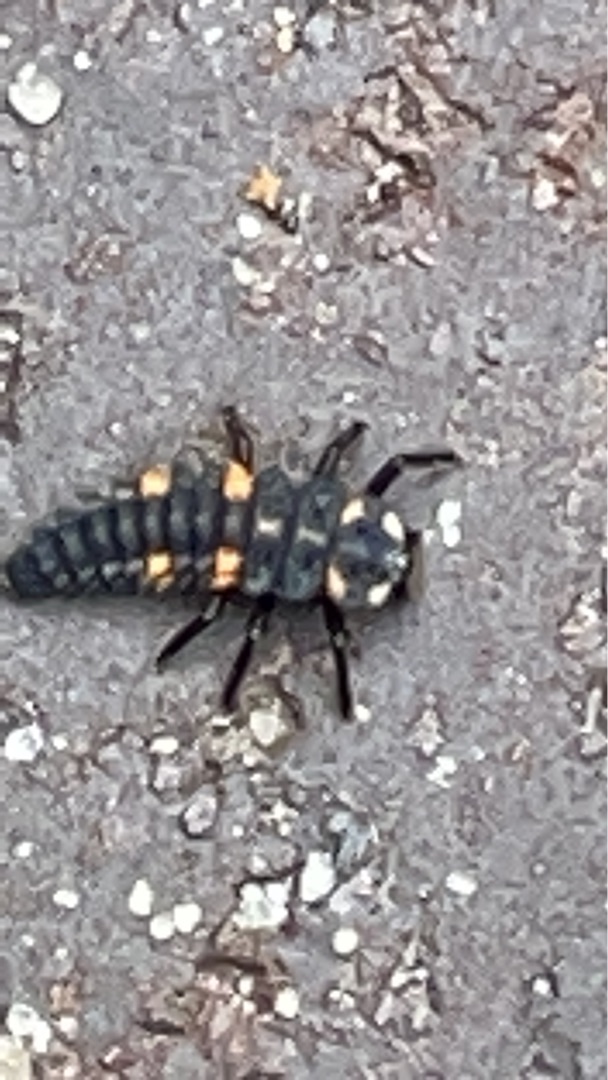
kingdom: Animalia
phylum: Arthropoda
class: Insecta
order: Coleoptera
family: Coccinellidae
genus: Coccinella
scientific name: Coccinella septempunctata
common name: Syvplettet mariehøne
